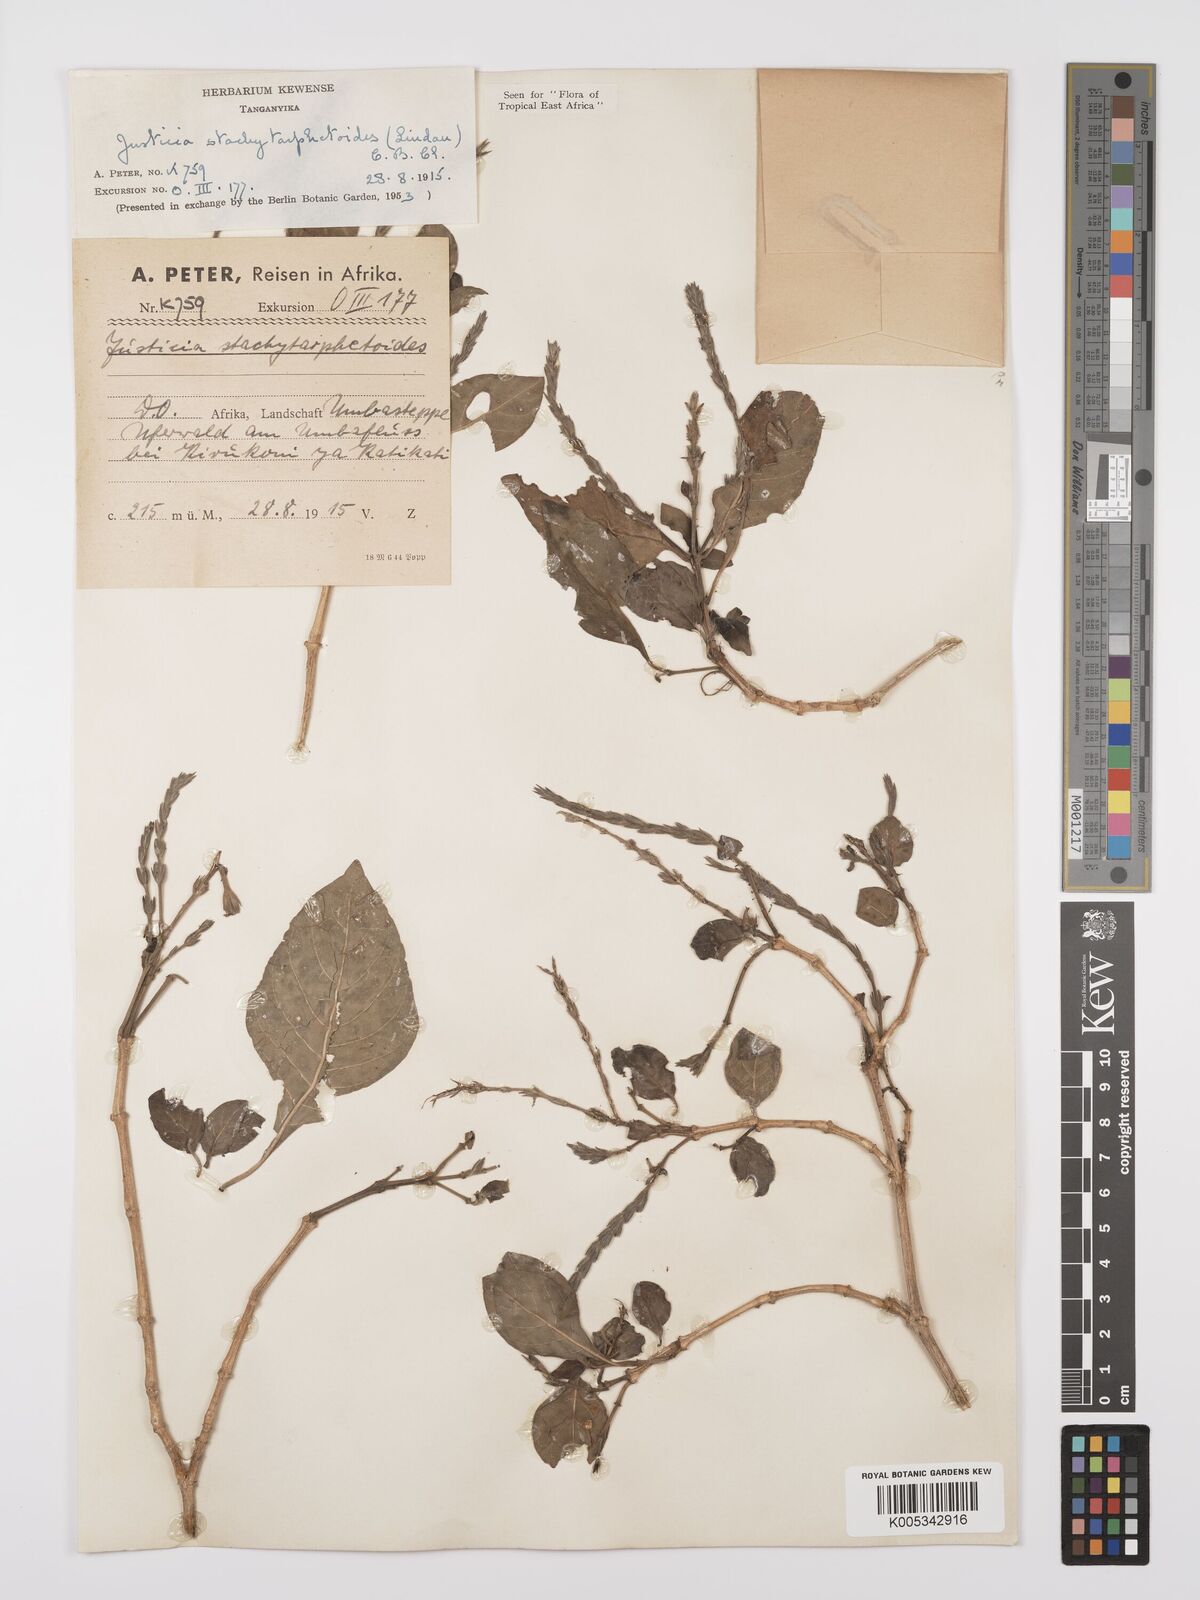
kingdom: Plantae
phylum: Tracheophyta
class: Magnoliopsida
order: Lamiales
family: Acanthaceae
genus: Justicia
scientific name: Justicia stachytarphetoides
